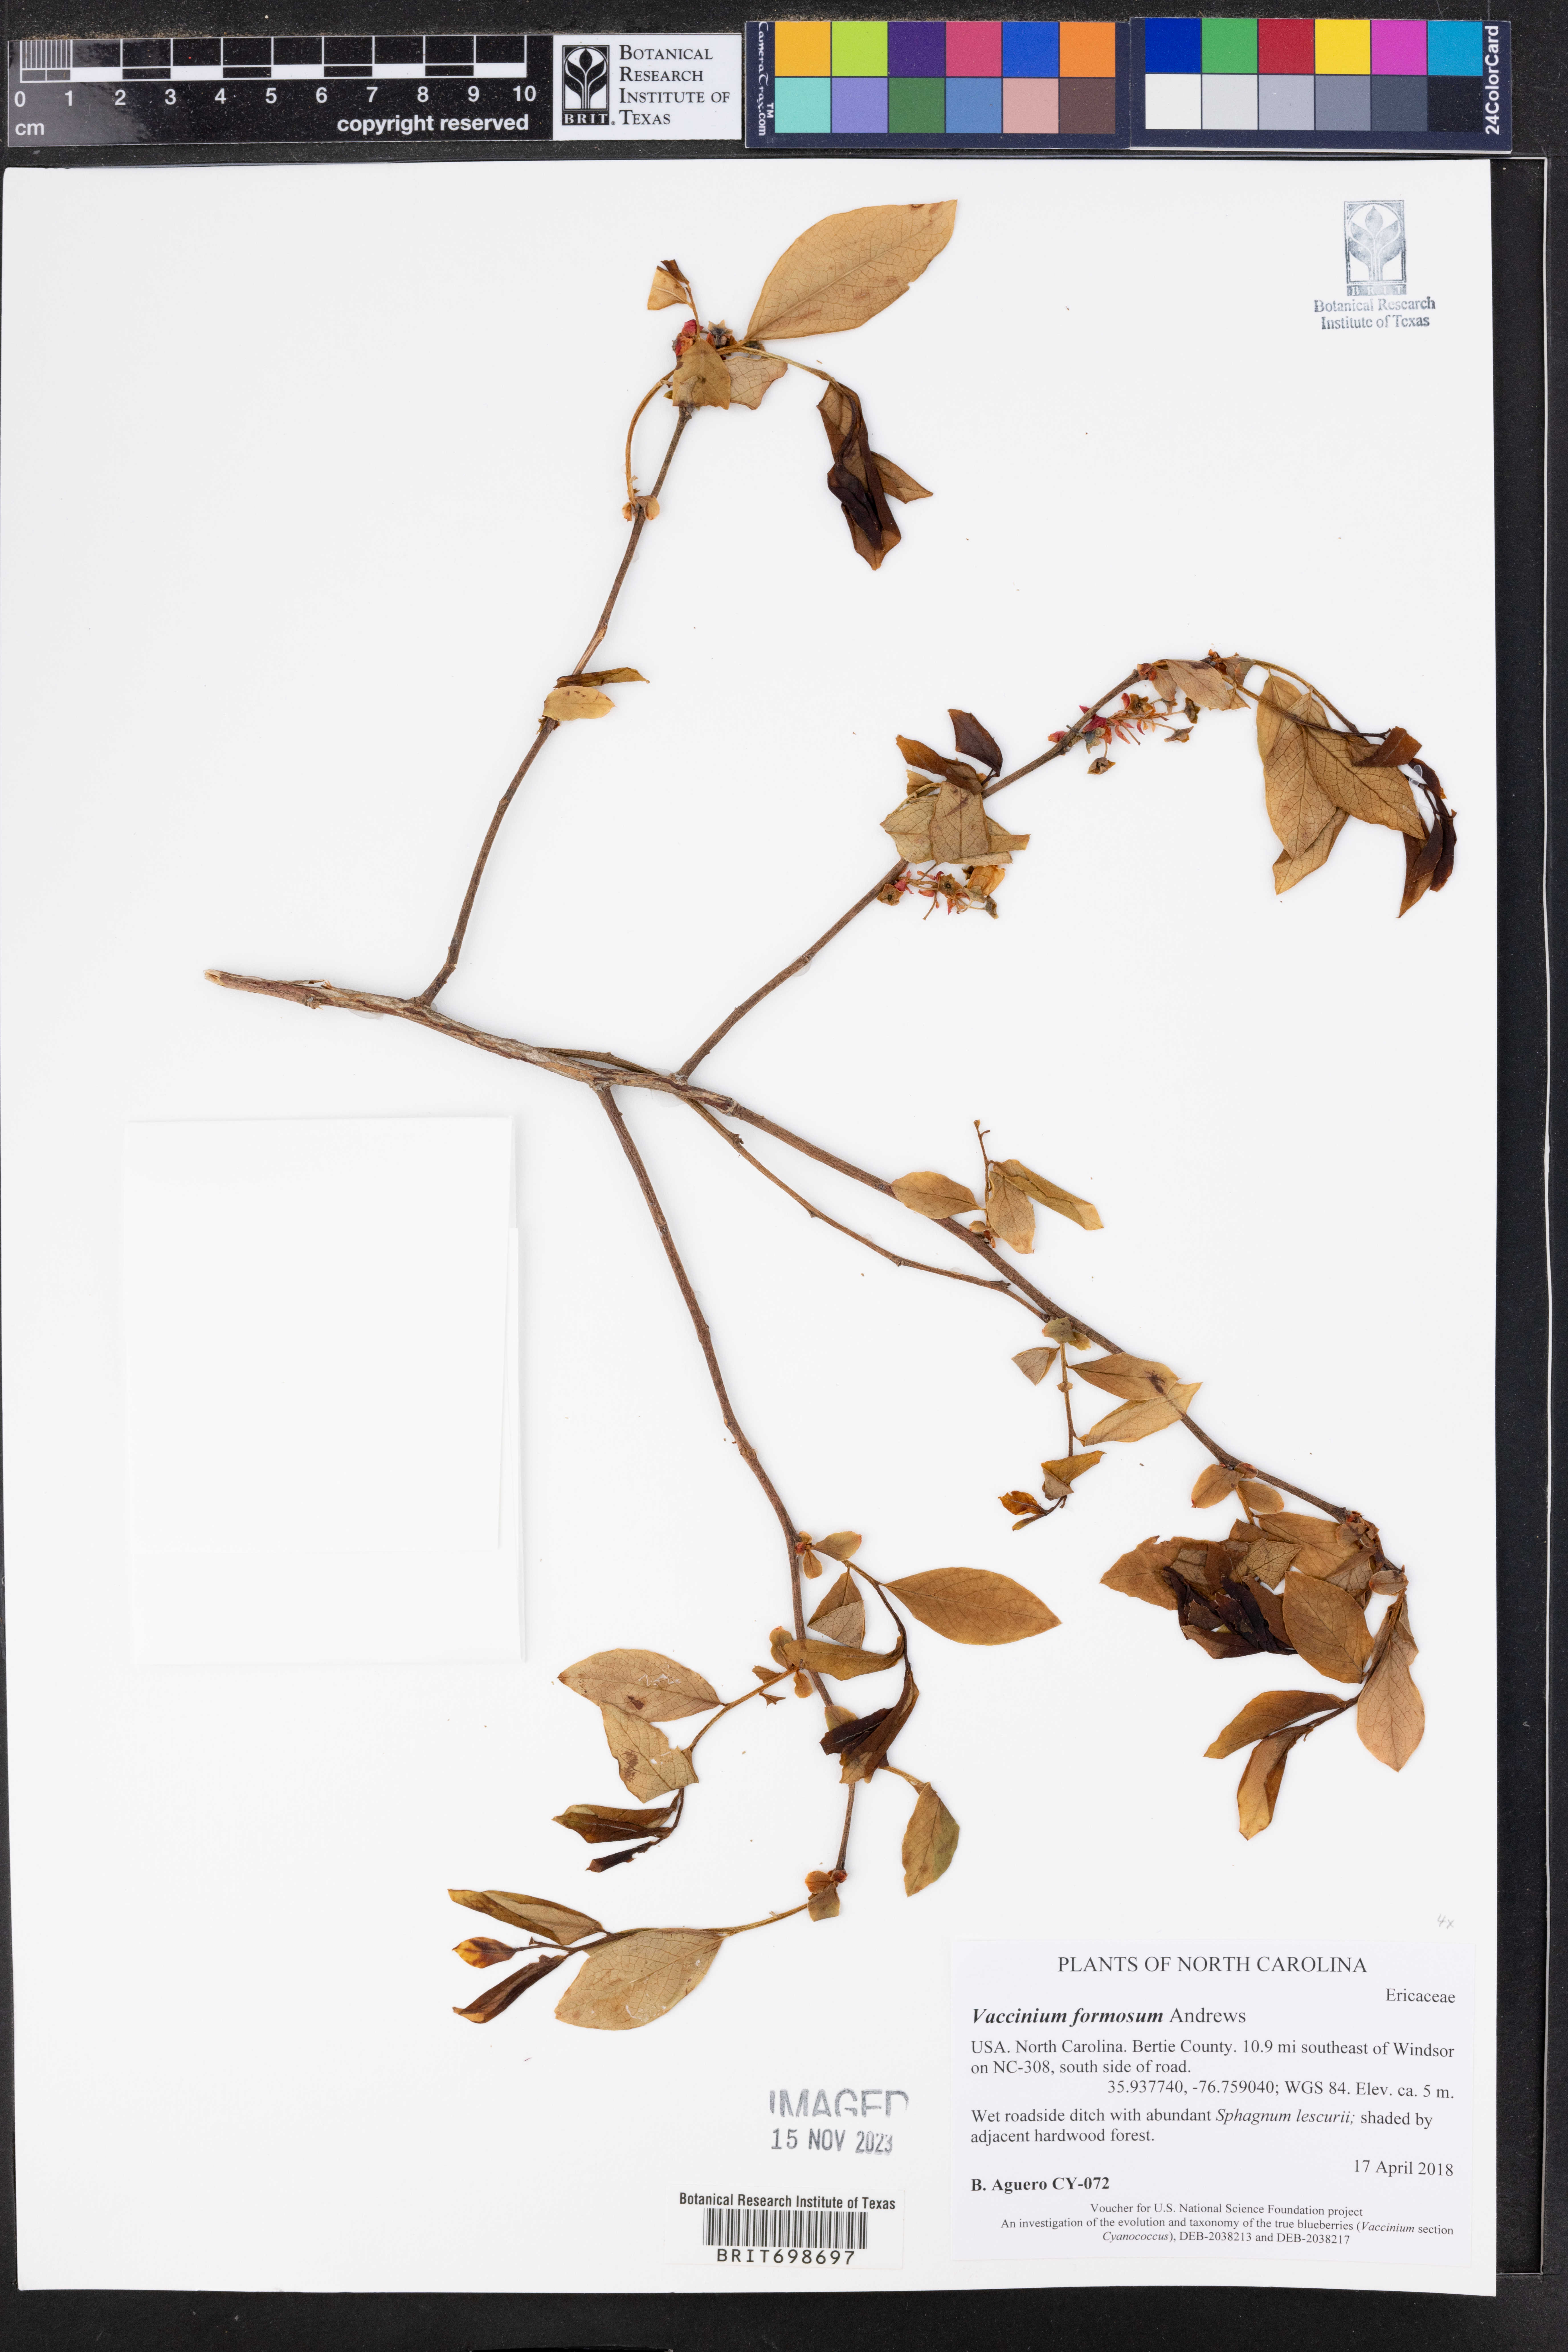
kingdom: Plantae
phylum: Tracheophyta
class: Magnoliopsida
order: Ericales
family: Ericaceae
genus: Vaccinium
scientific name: Vaccinium corymbosum
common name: Blueberry
